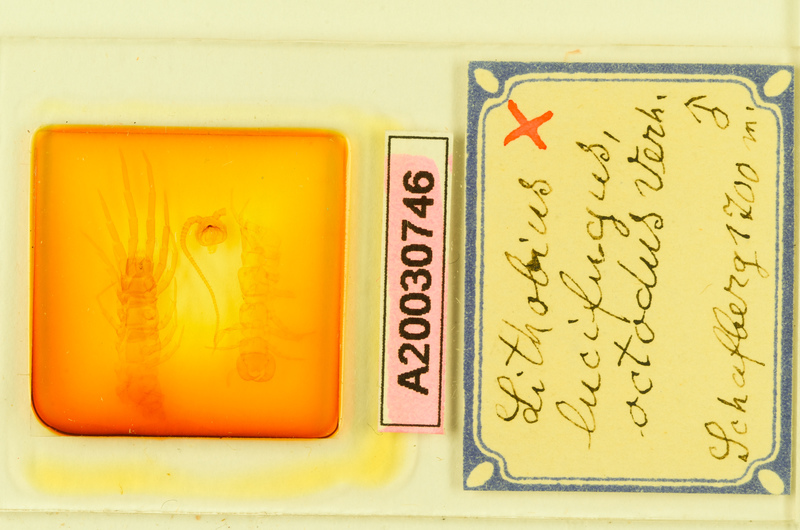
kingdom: Animalia
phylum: Arthropoda
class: Chilopoda
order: Lithobiomorpha
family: Lithobiidae
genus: Lithobius
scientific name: Lithobius lucifugus
